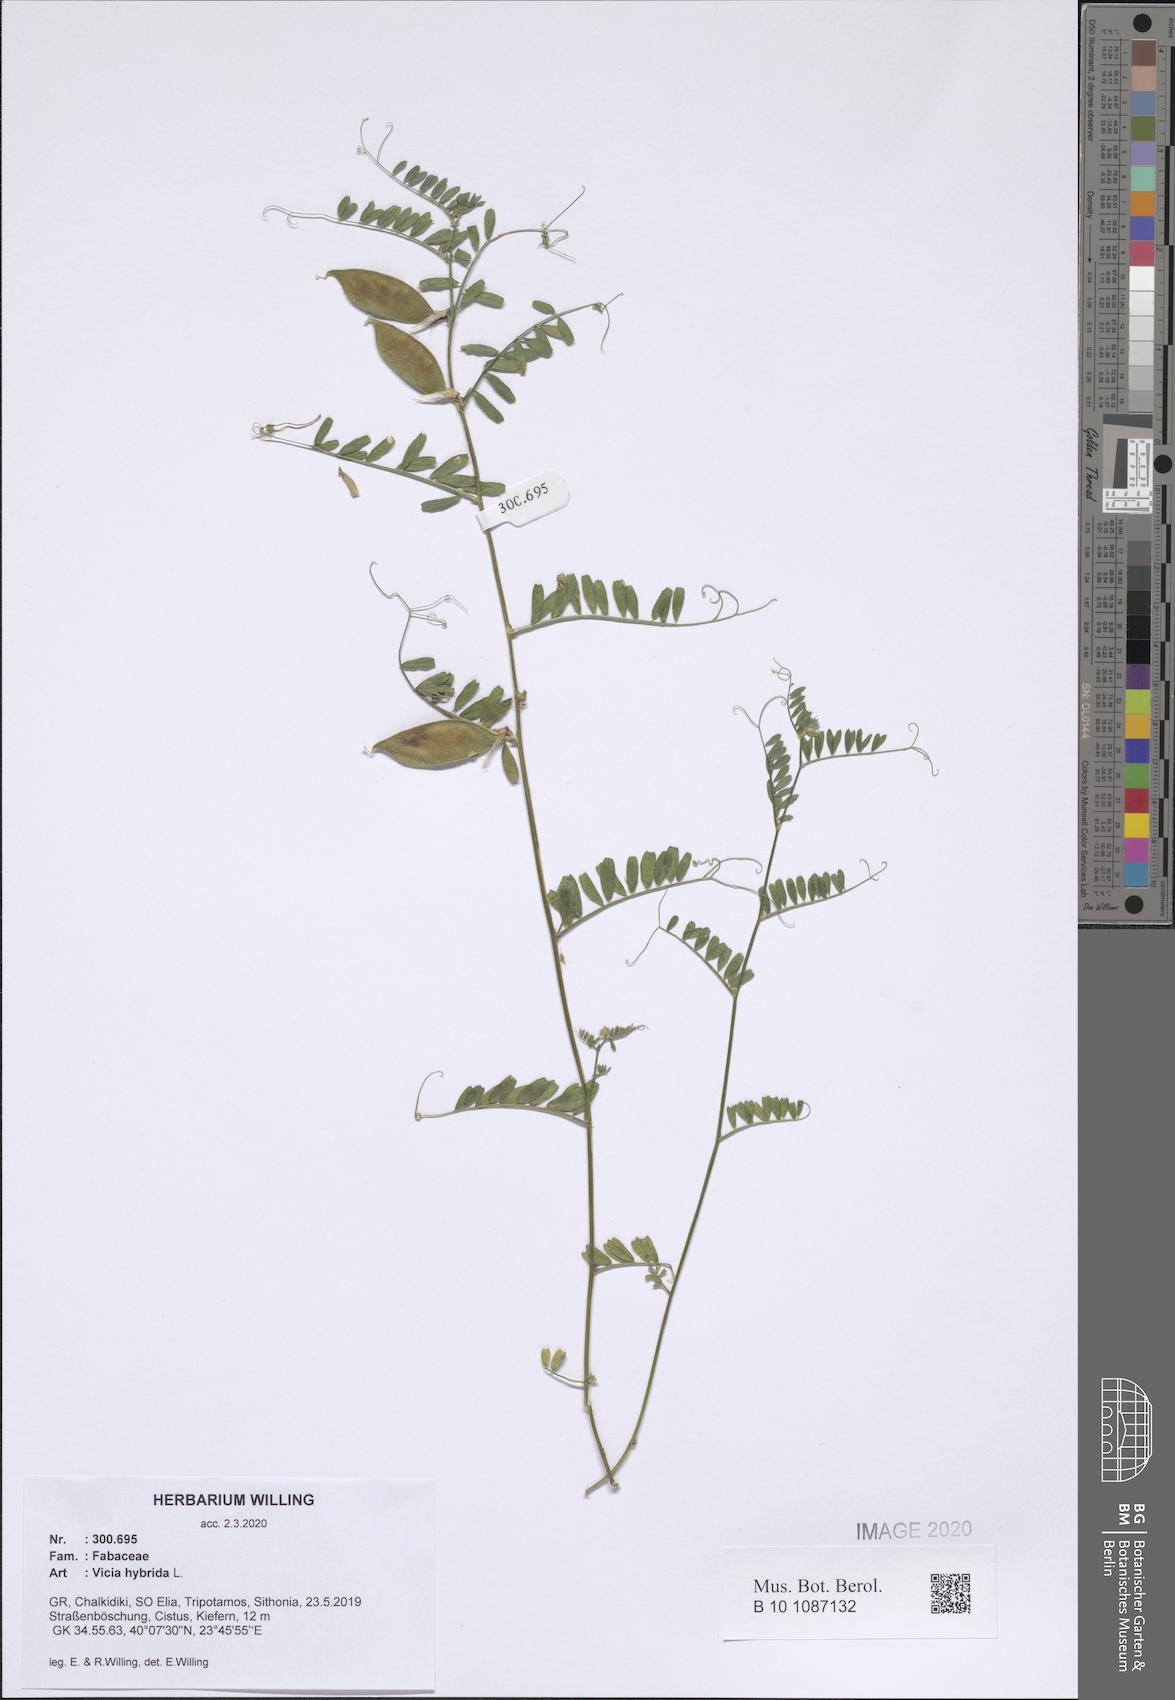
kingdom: Plantae
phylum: Tracheophyta
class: Magnoliopsida
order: Fabales
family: Fabaceae
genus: Vicia
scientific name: Vicia hybrida
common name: Hairy yellow vetch
